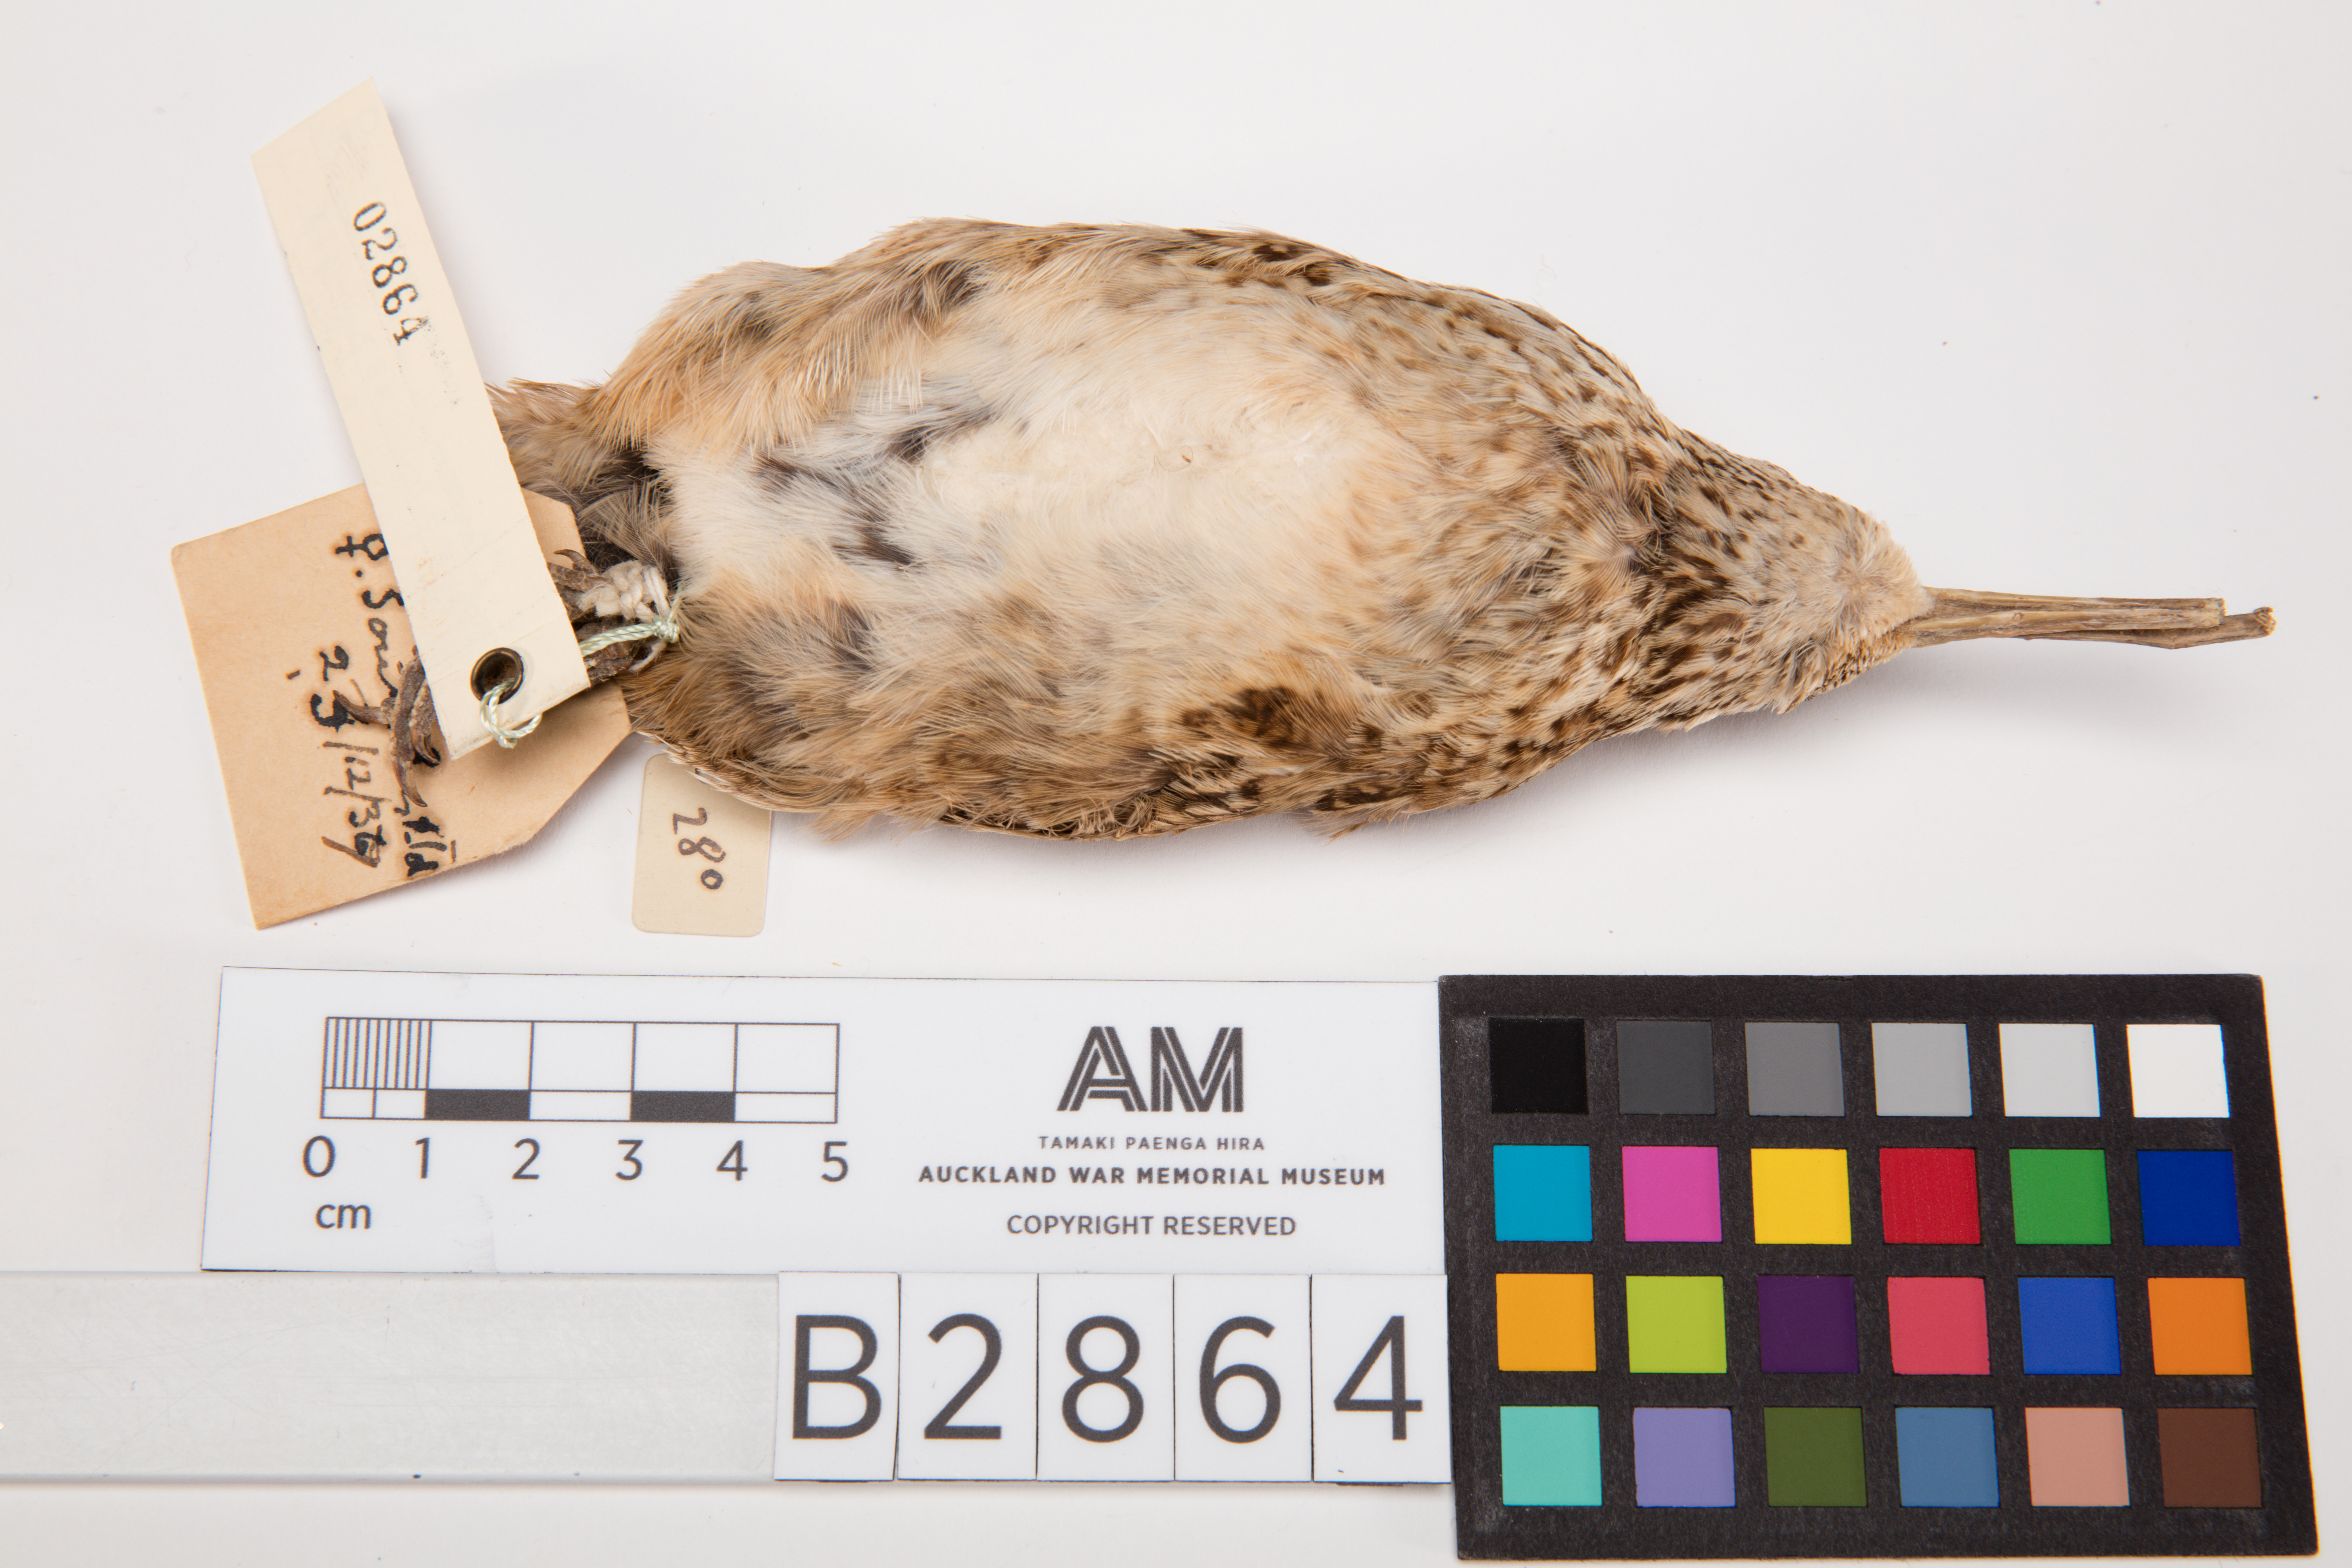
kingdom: Animalia
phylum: Chordata
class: Aves
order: Charadriiformes
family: Scolopacidae
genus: Coenocorypha
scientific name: Coenocorypha pusilla
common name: Chatham snipe
